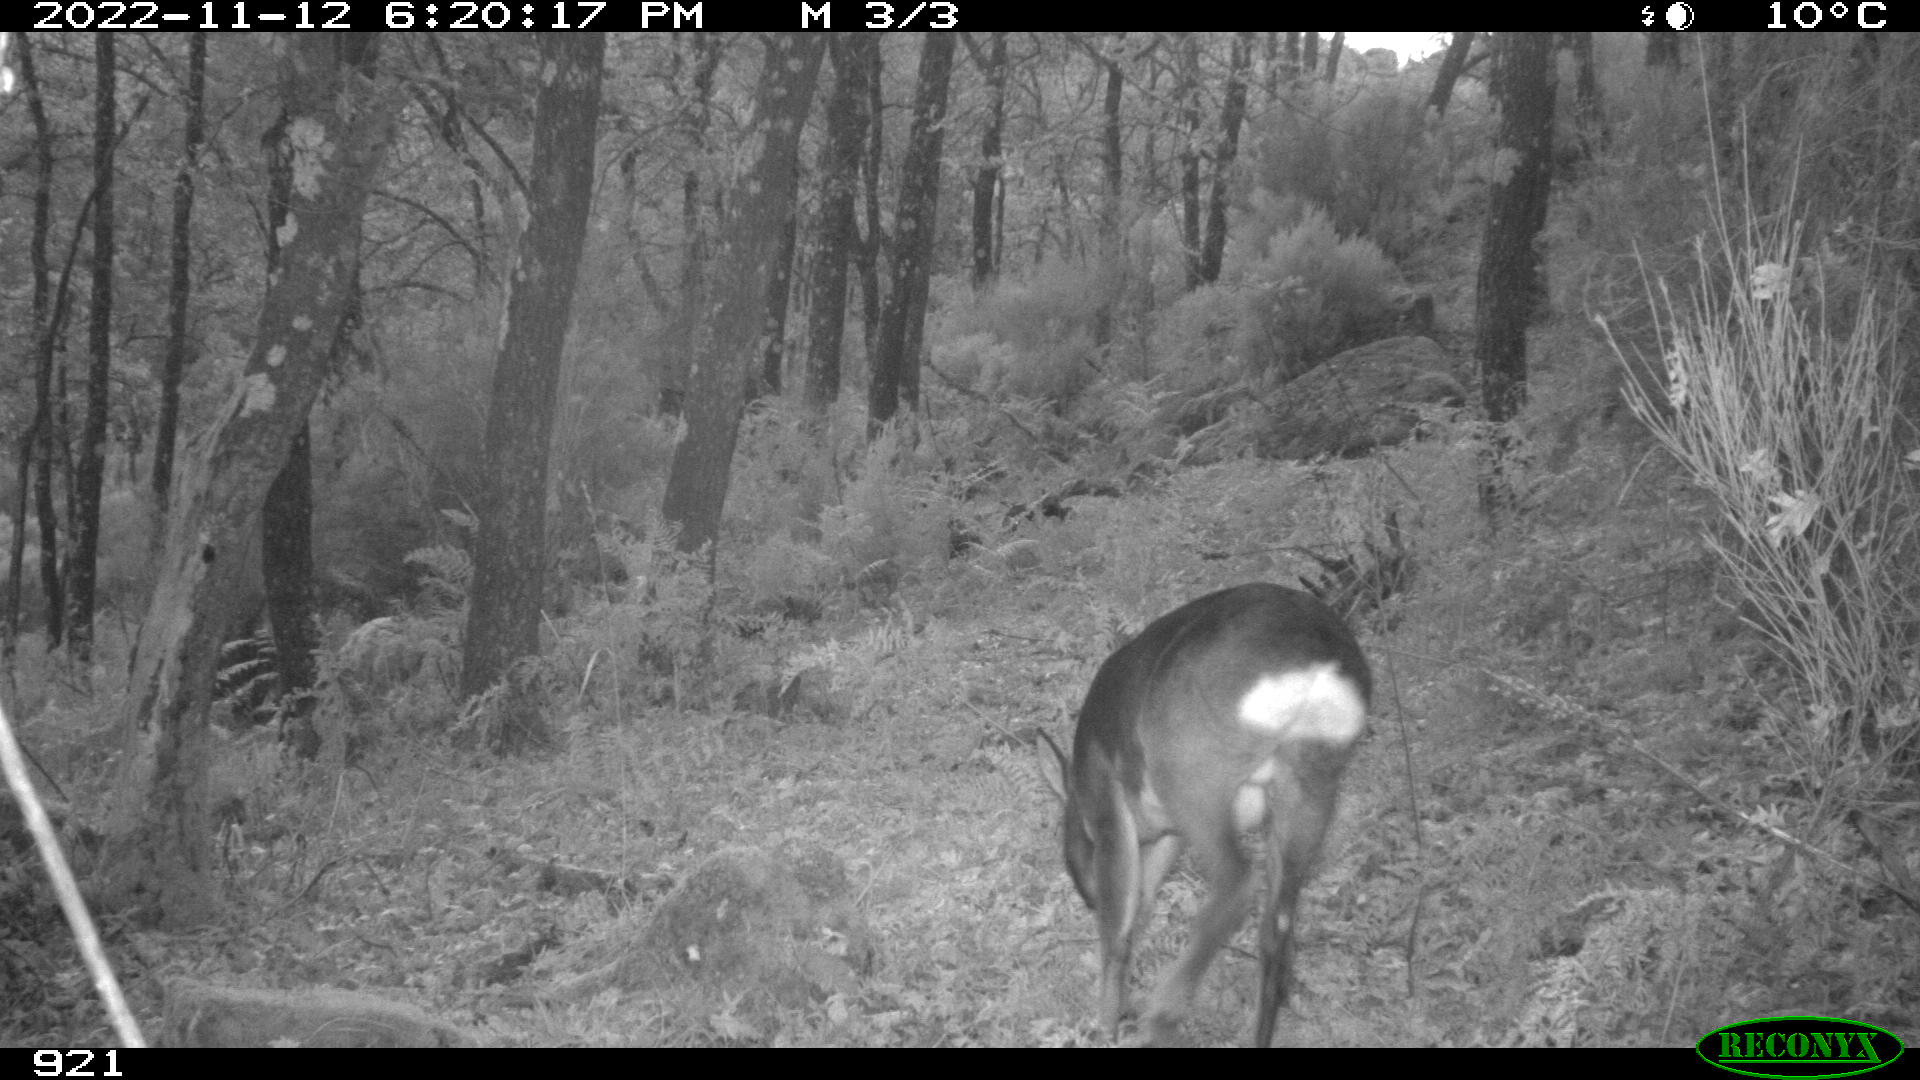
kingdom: Animalia
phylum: Chordata
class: Mammalia
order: Artiodactyla
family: Cervidae
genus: Capreolus
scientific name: Capreolus capreolus
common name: Western roe deer
